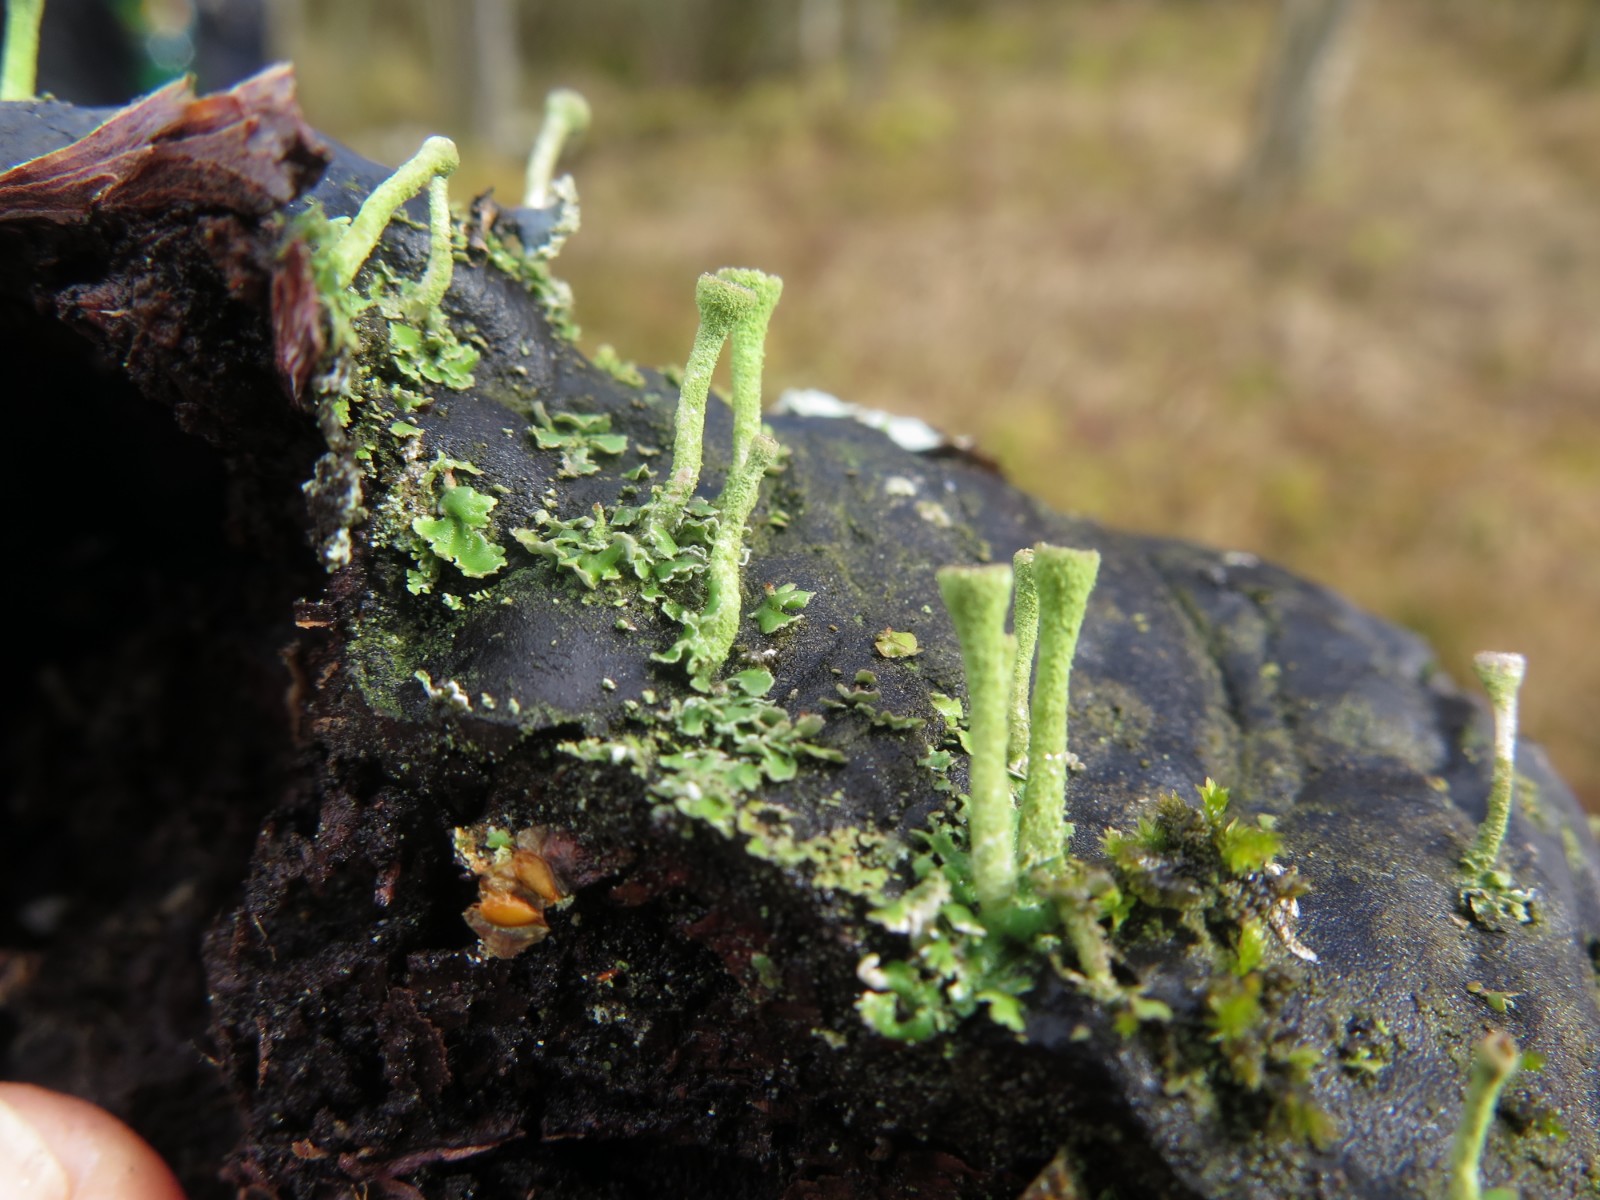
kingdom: Fungi
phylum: Ascomycota
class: Lecanoromycetes
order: Lecanorales
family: Cladoniaceae
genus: Cladonia
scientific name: Cladonia fimbriata
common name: bleggrøn bægerlav
